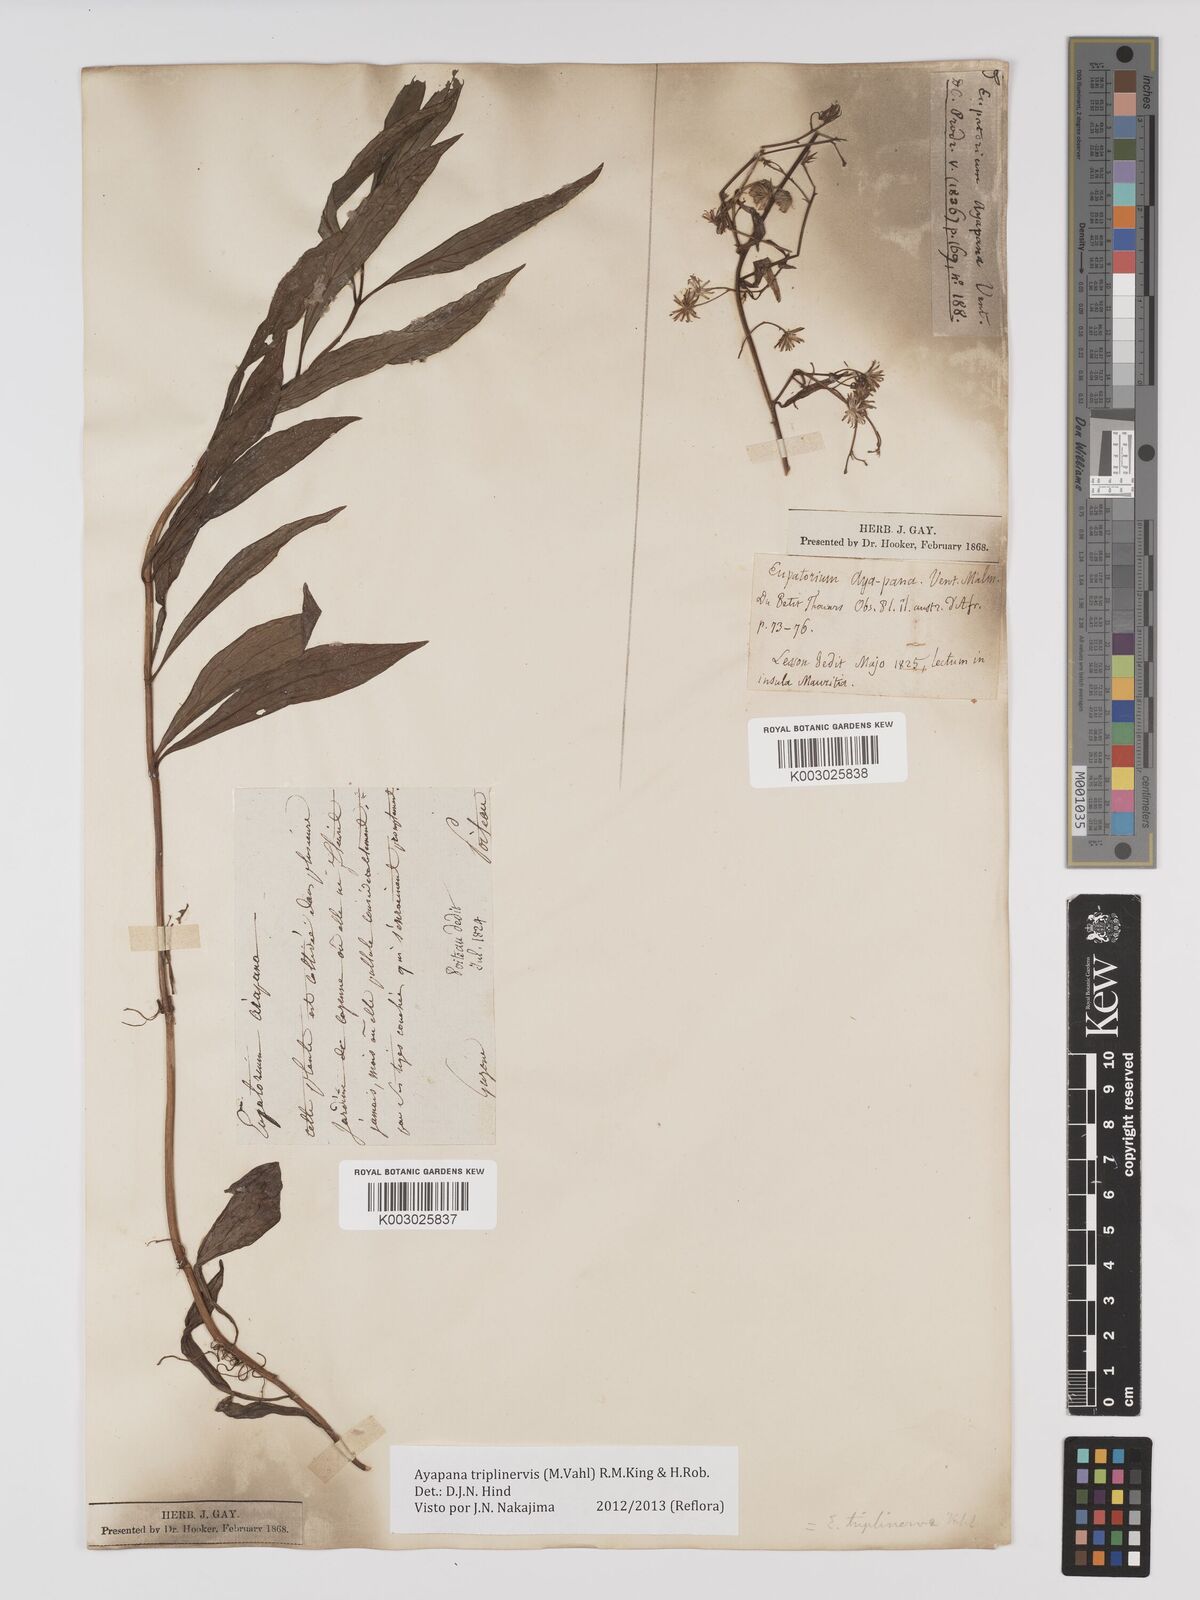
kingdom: Plantae
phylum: Tracheophyta
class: Magnoliopsida
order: Asterales
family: Asteraceae
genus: Ayapana
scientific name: Ayapana triplinervis
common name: Triplinerved eupatorium
